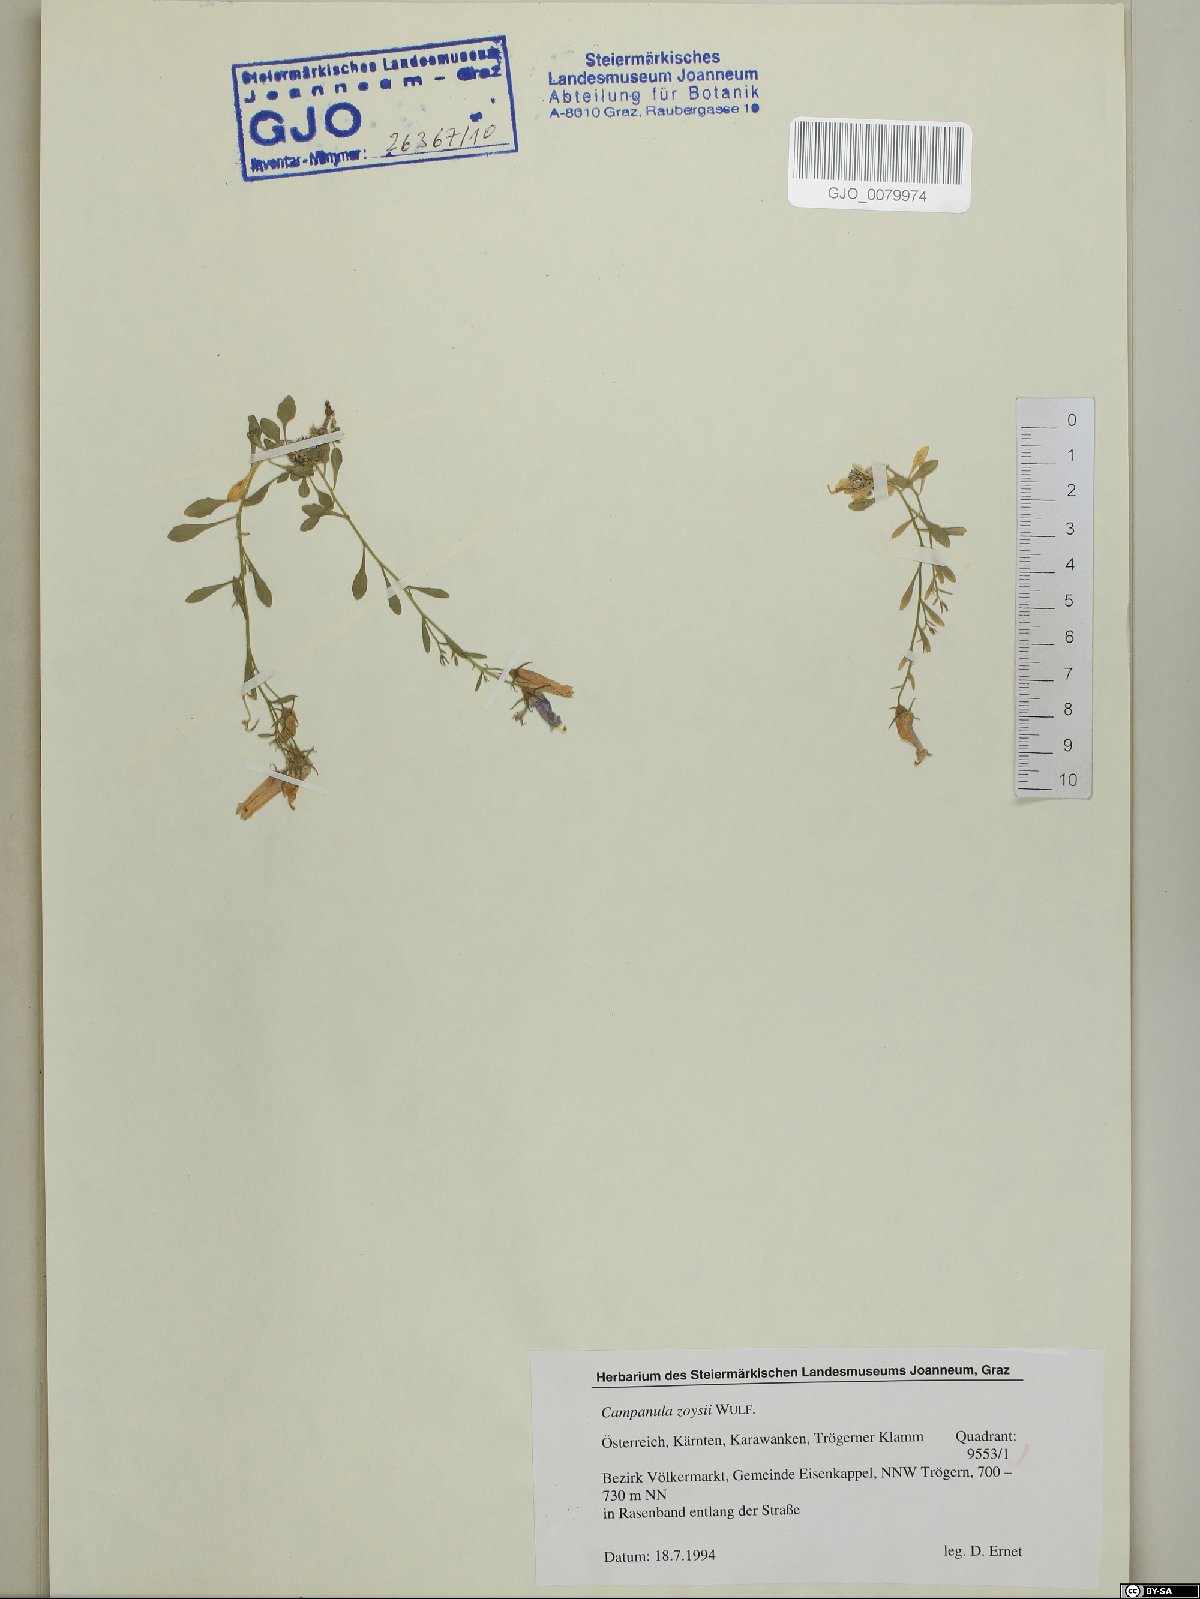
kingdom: Plantae
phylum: Tracheophyta
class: Magnoliopsida
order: Asterales
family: Campanulaceae
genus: Favratia
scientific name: Favratia zoysii
